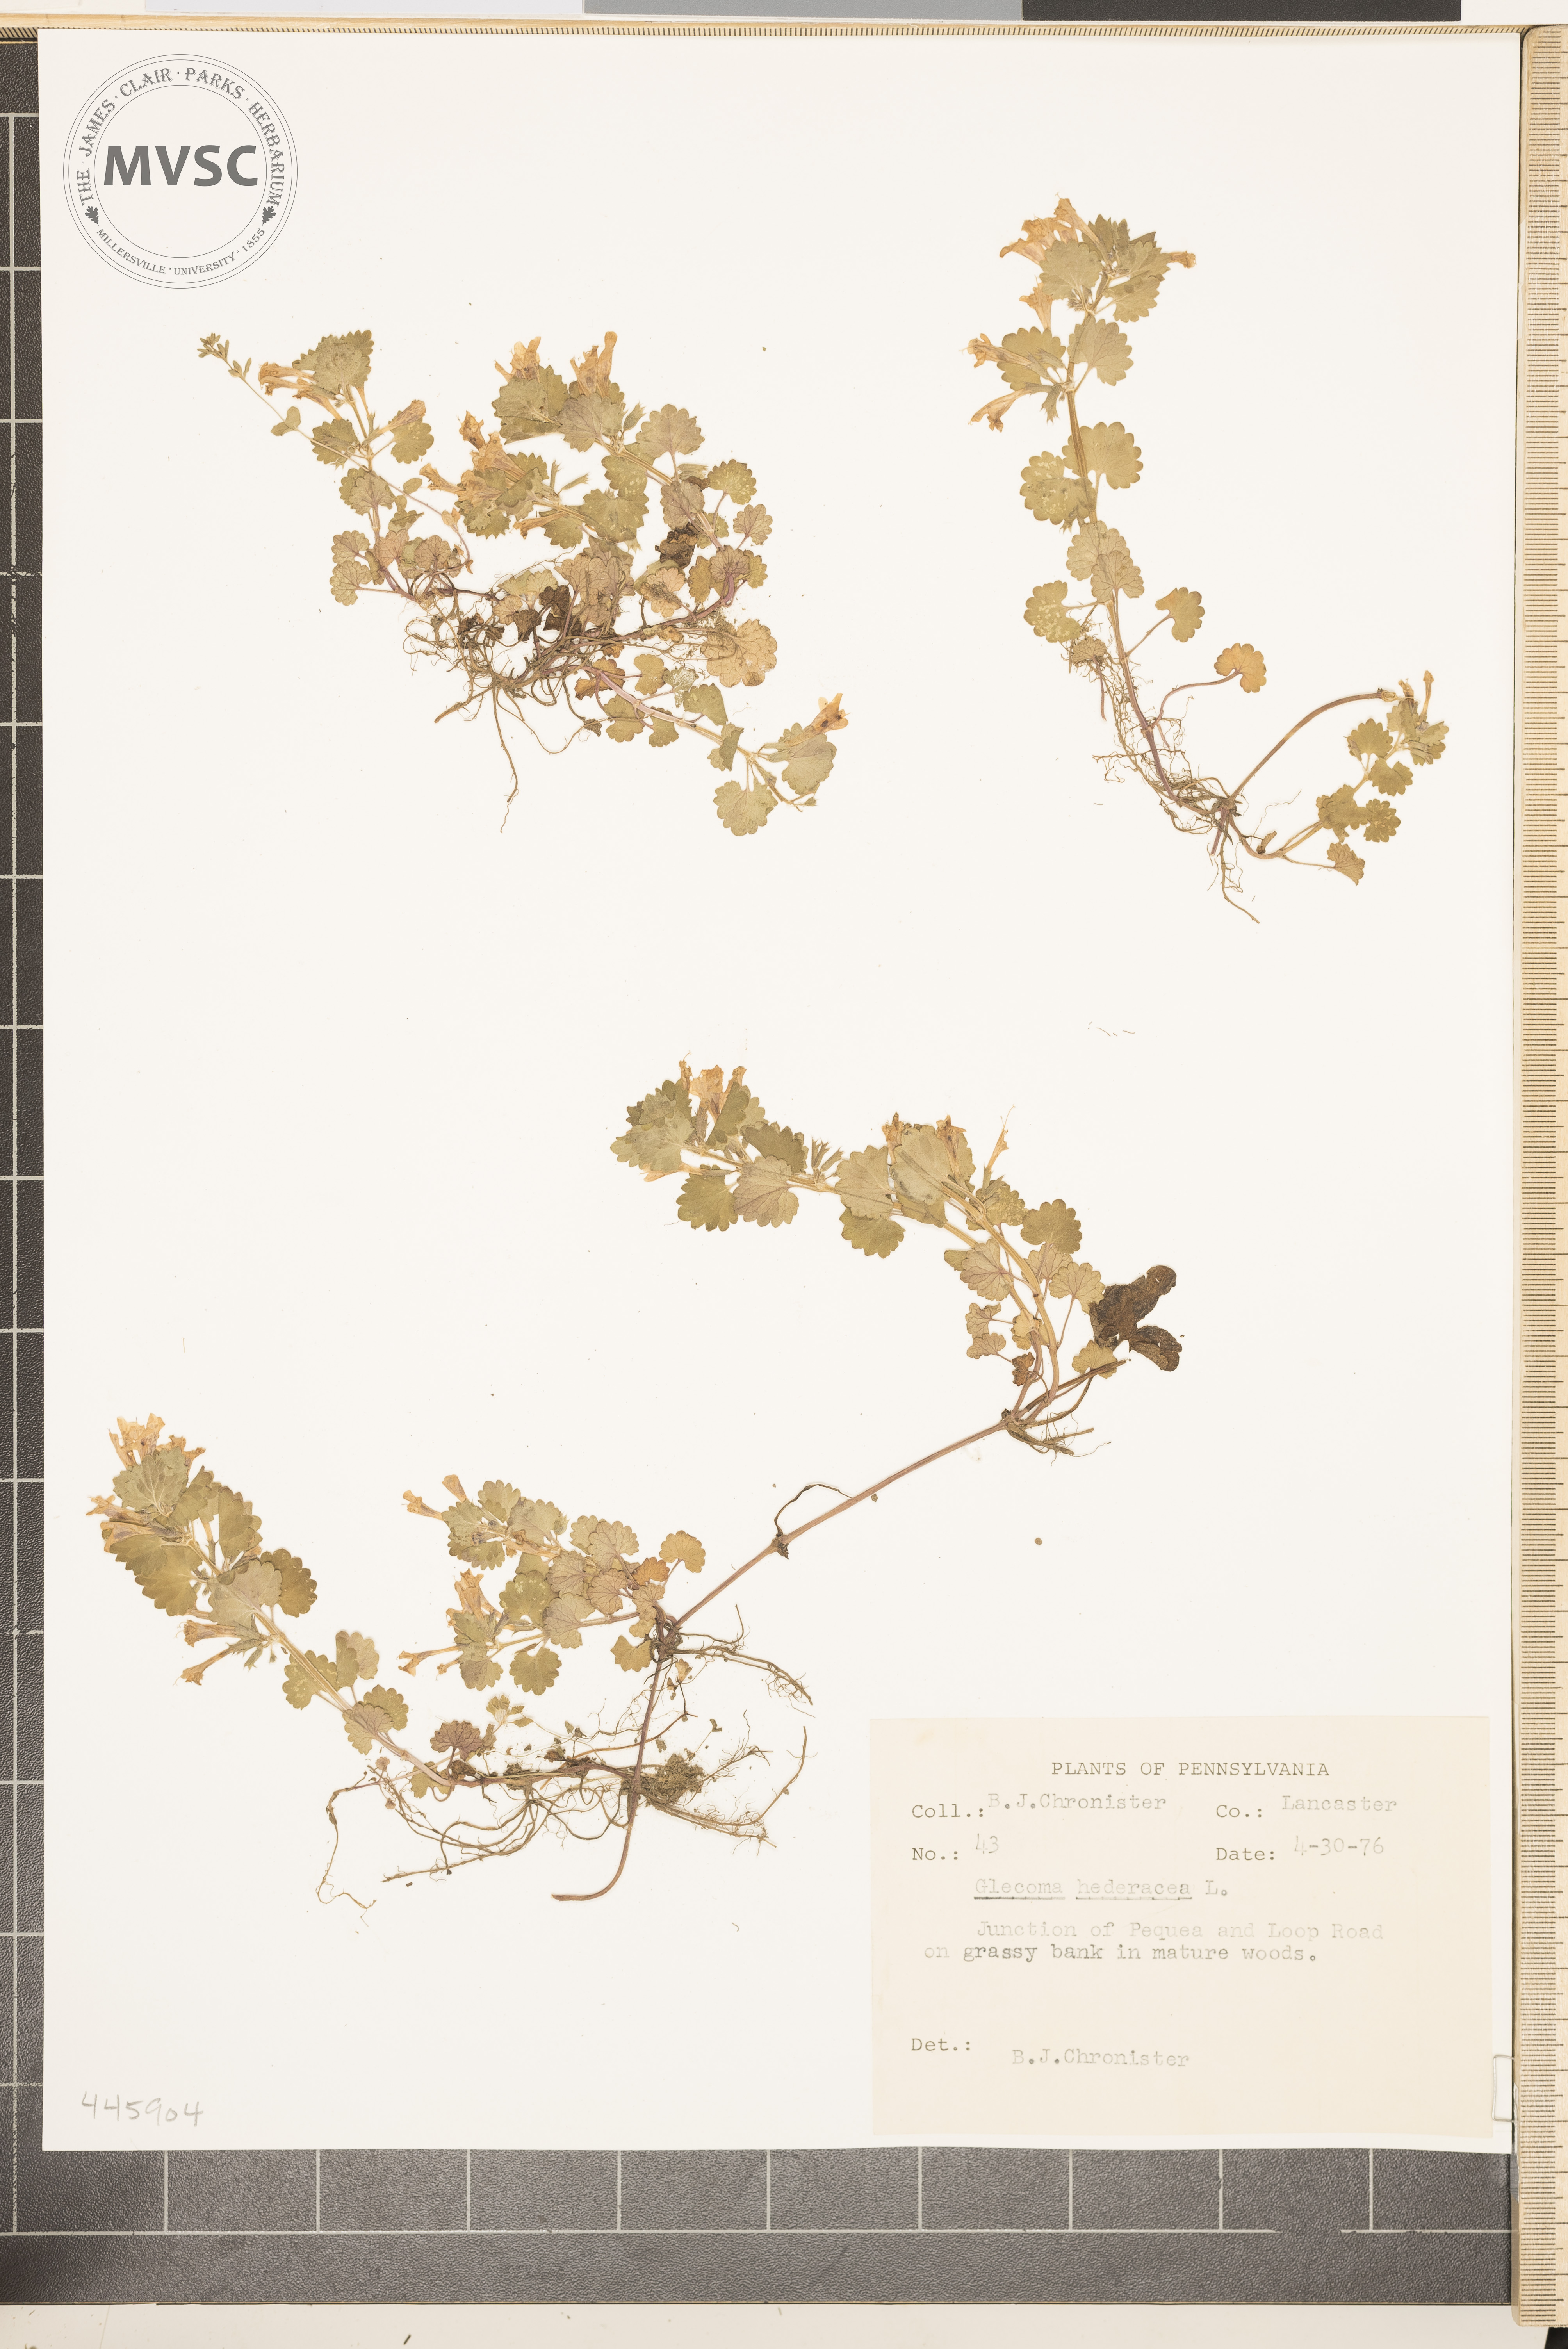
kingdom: Plantae
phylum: Tracheophyta
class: Magnoliopsida
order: Lamiales
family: Lamiaceae
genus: Glechoma
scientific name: Glechoma hederacea
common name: Ground ivy
